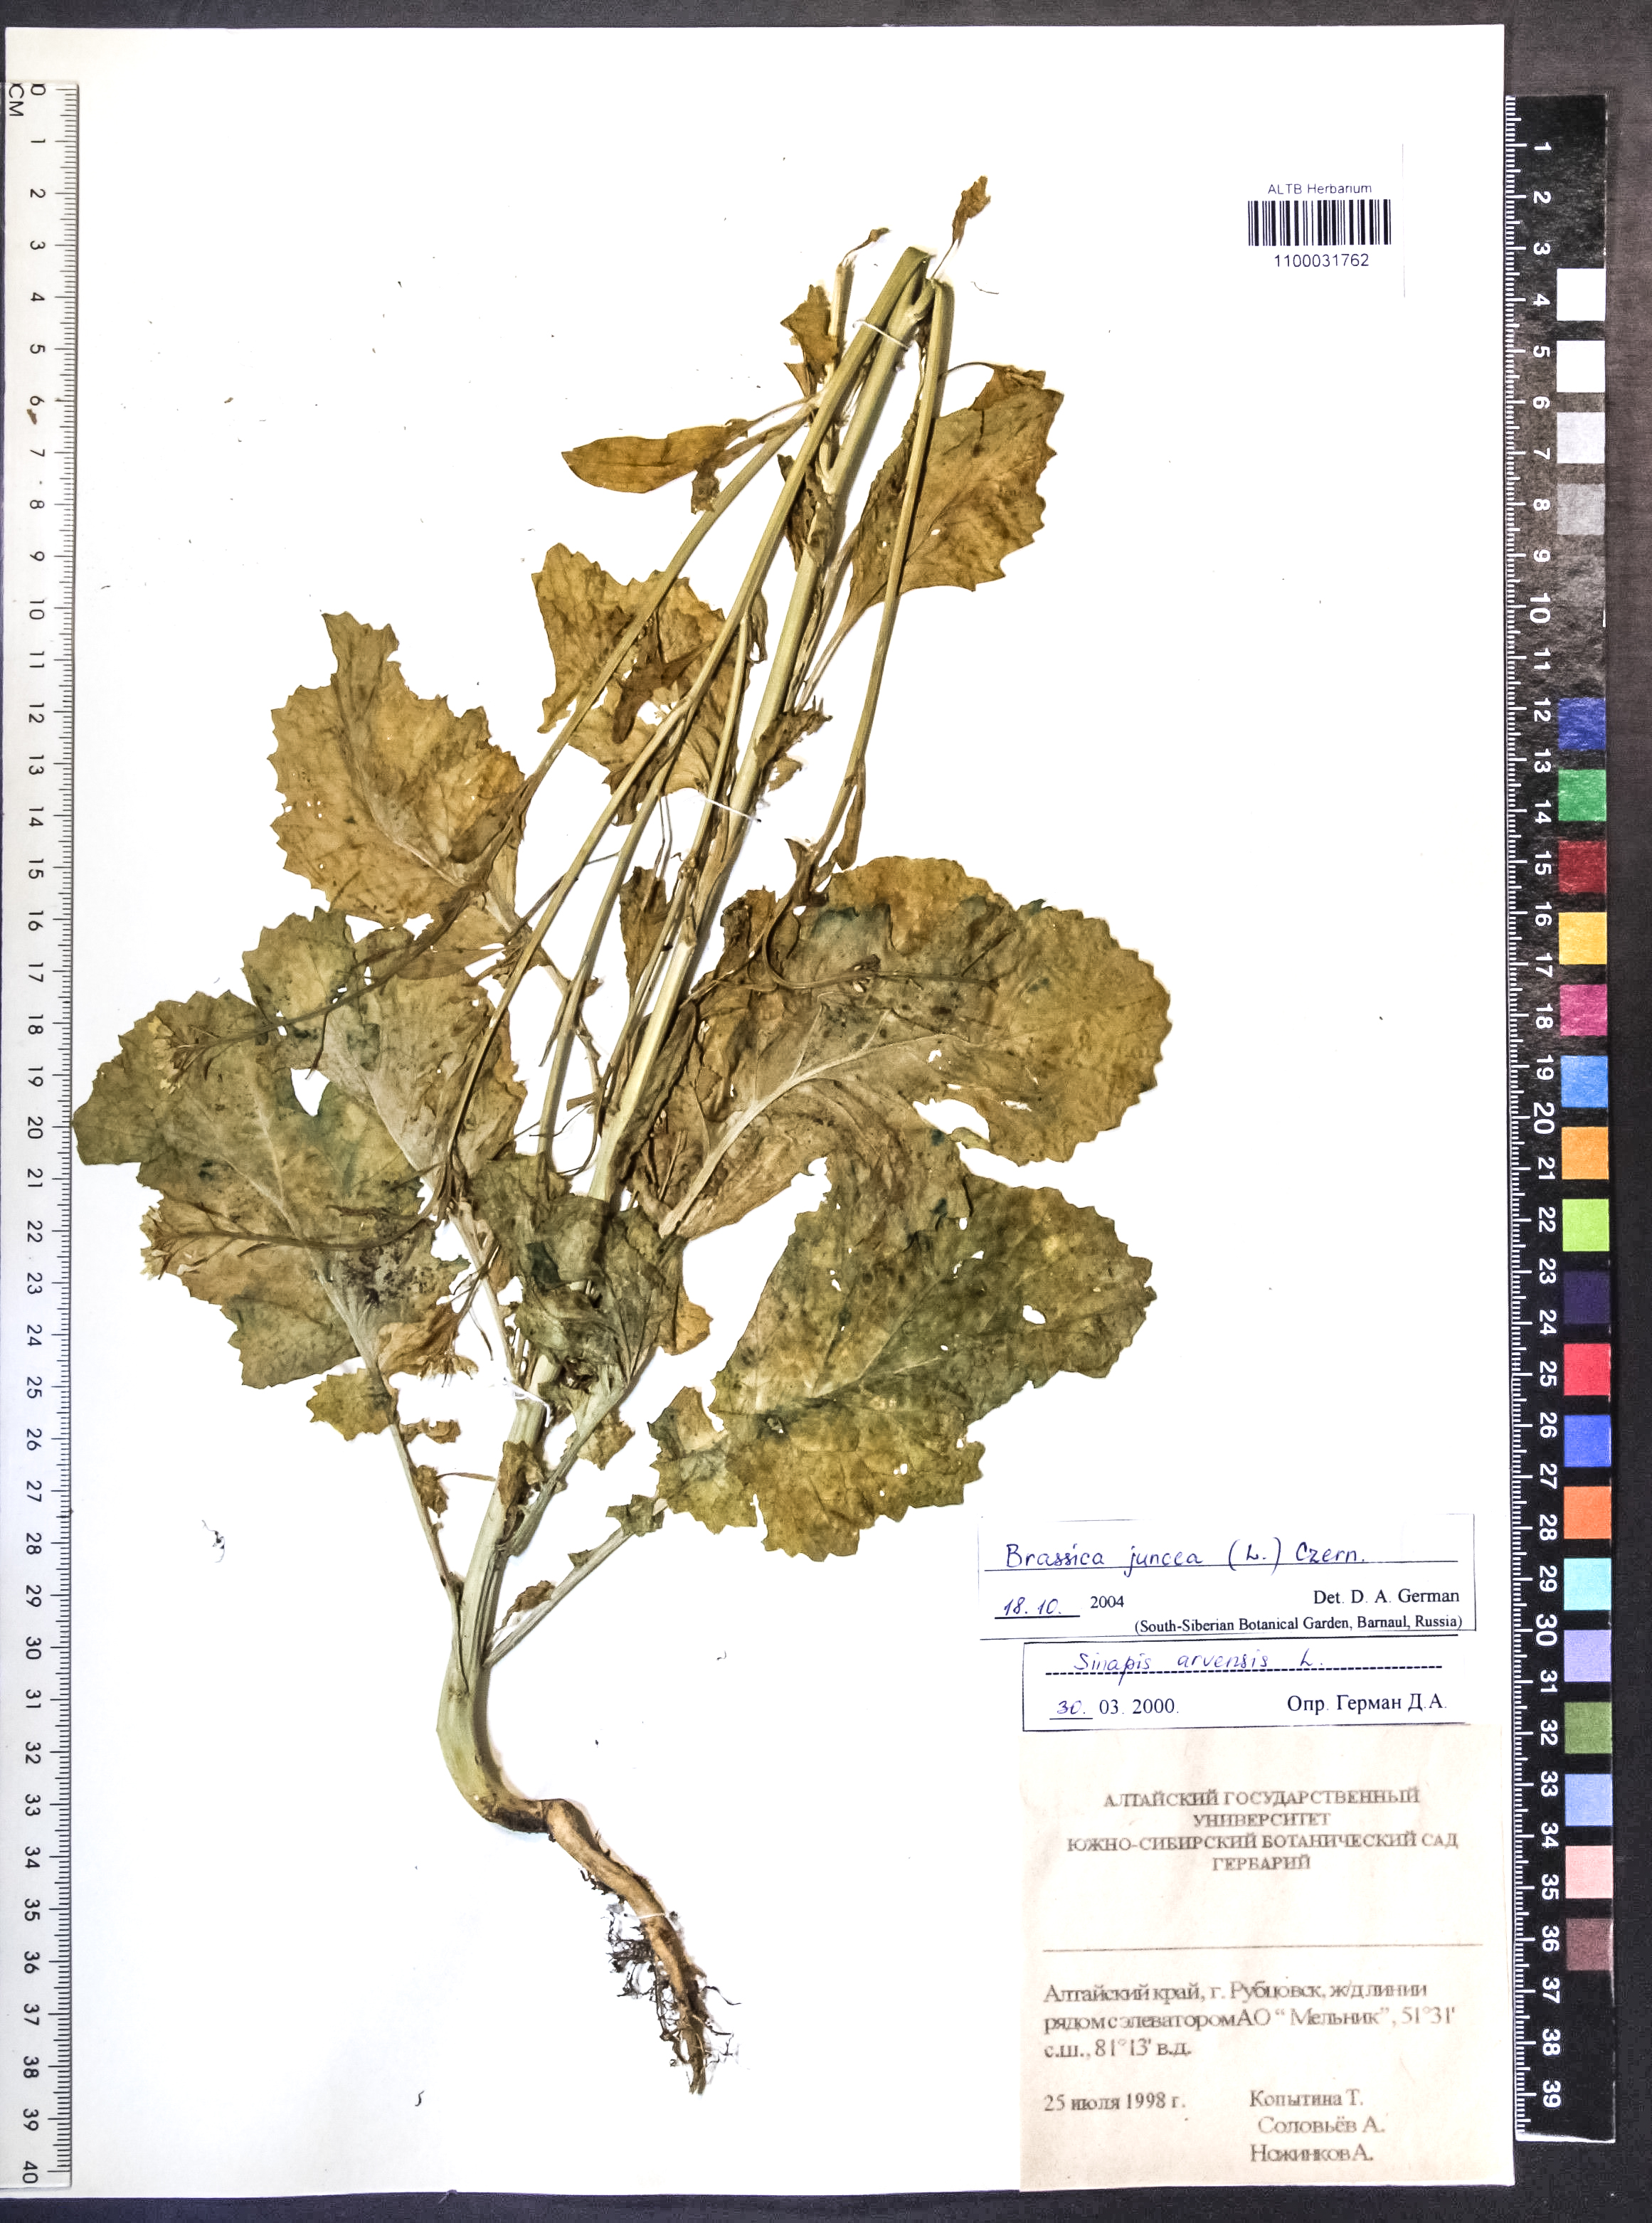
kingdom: Plantae
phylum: Tracheophyta
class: Magnoliopsida
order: Brassicales
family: Brassicaceae
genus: Brassica
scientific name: Brassica juncea
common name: Brown mustard
